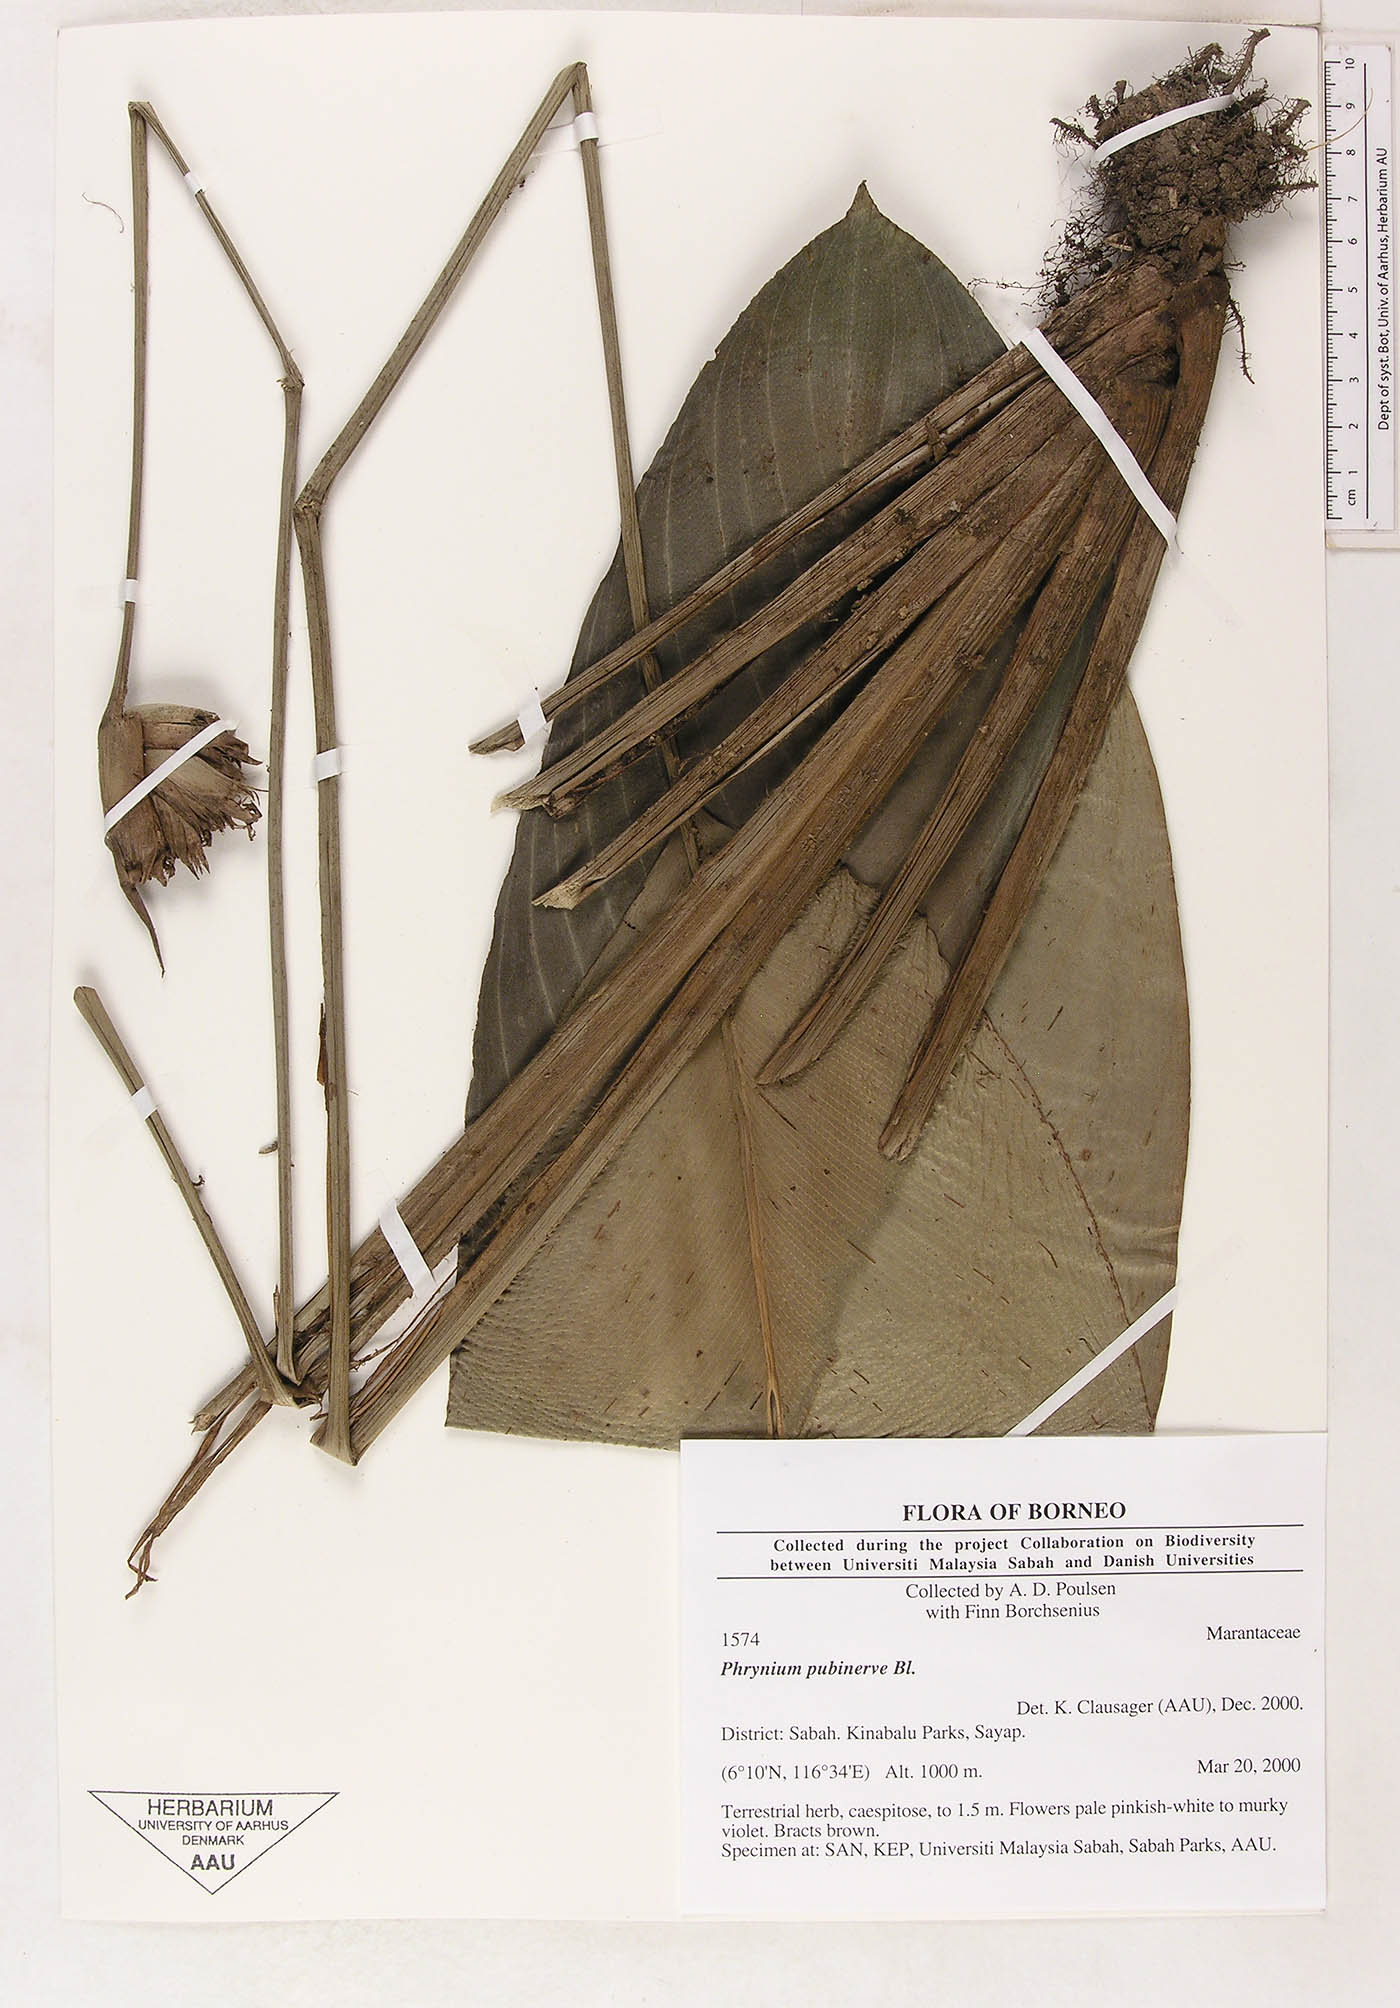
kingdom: Plantae
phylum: Tracheophyta
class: Liliopsida
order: Zingiberales
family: Marantaceae
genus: Phrynium
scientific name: Phrynium pubinerve
